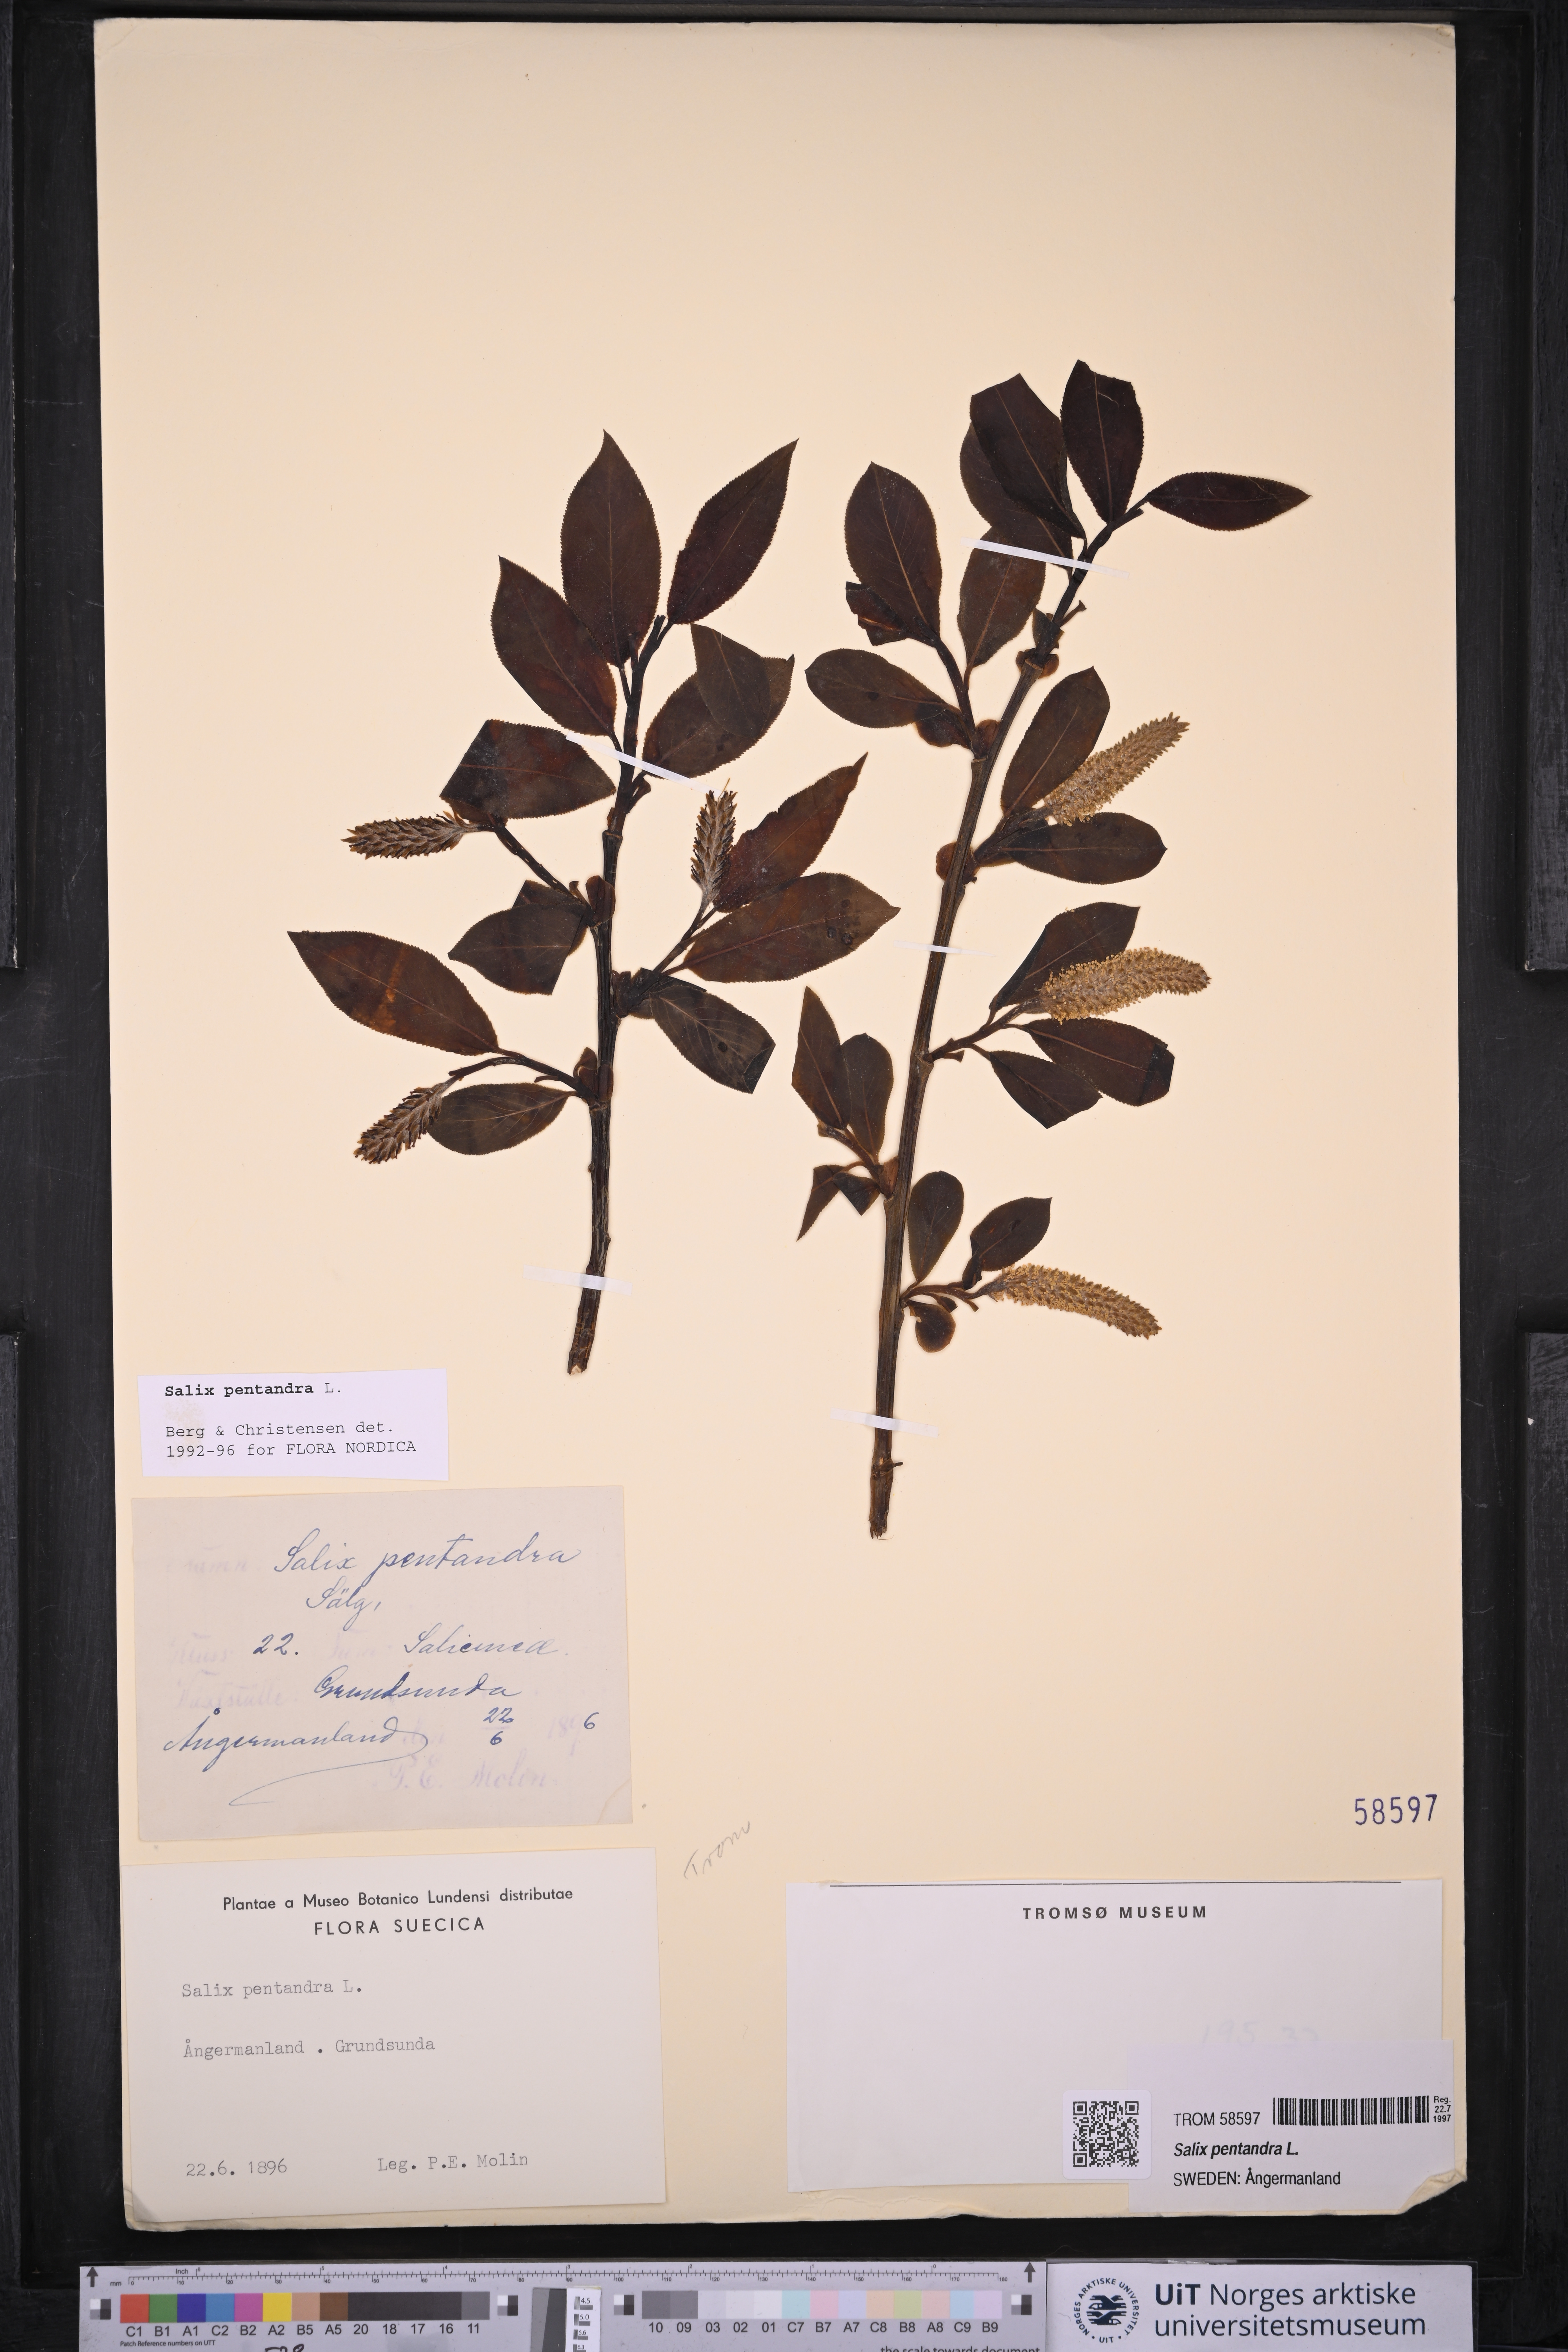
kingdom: Plantae
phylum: Tracheophyta
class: Magnoliopsida
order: Malpighiales
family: Salicaceae
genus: Salix
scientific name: Salix pentandra
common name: Bay willow
